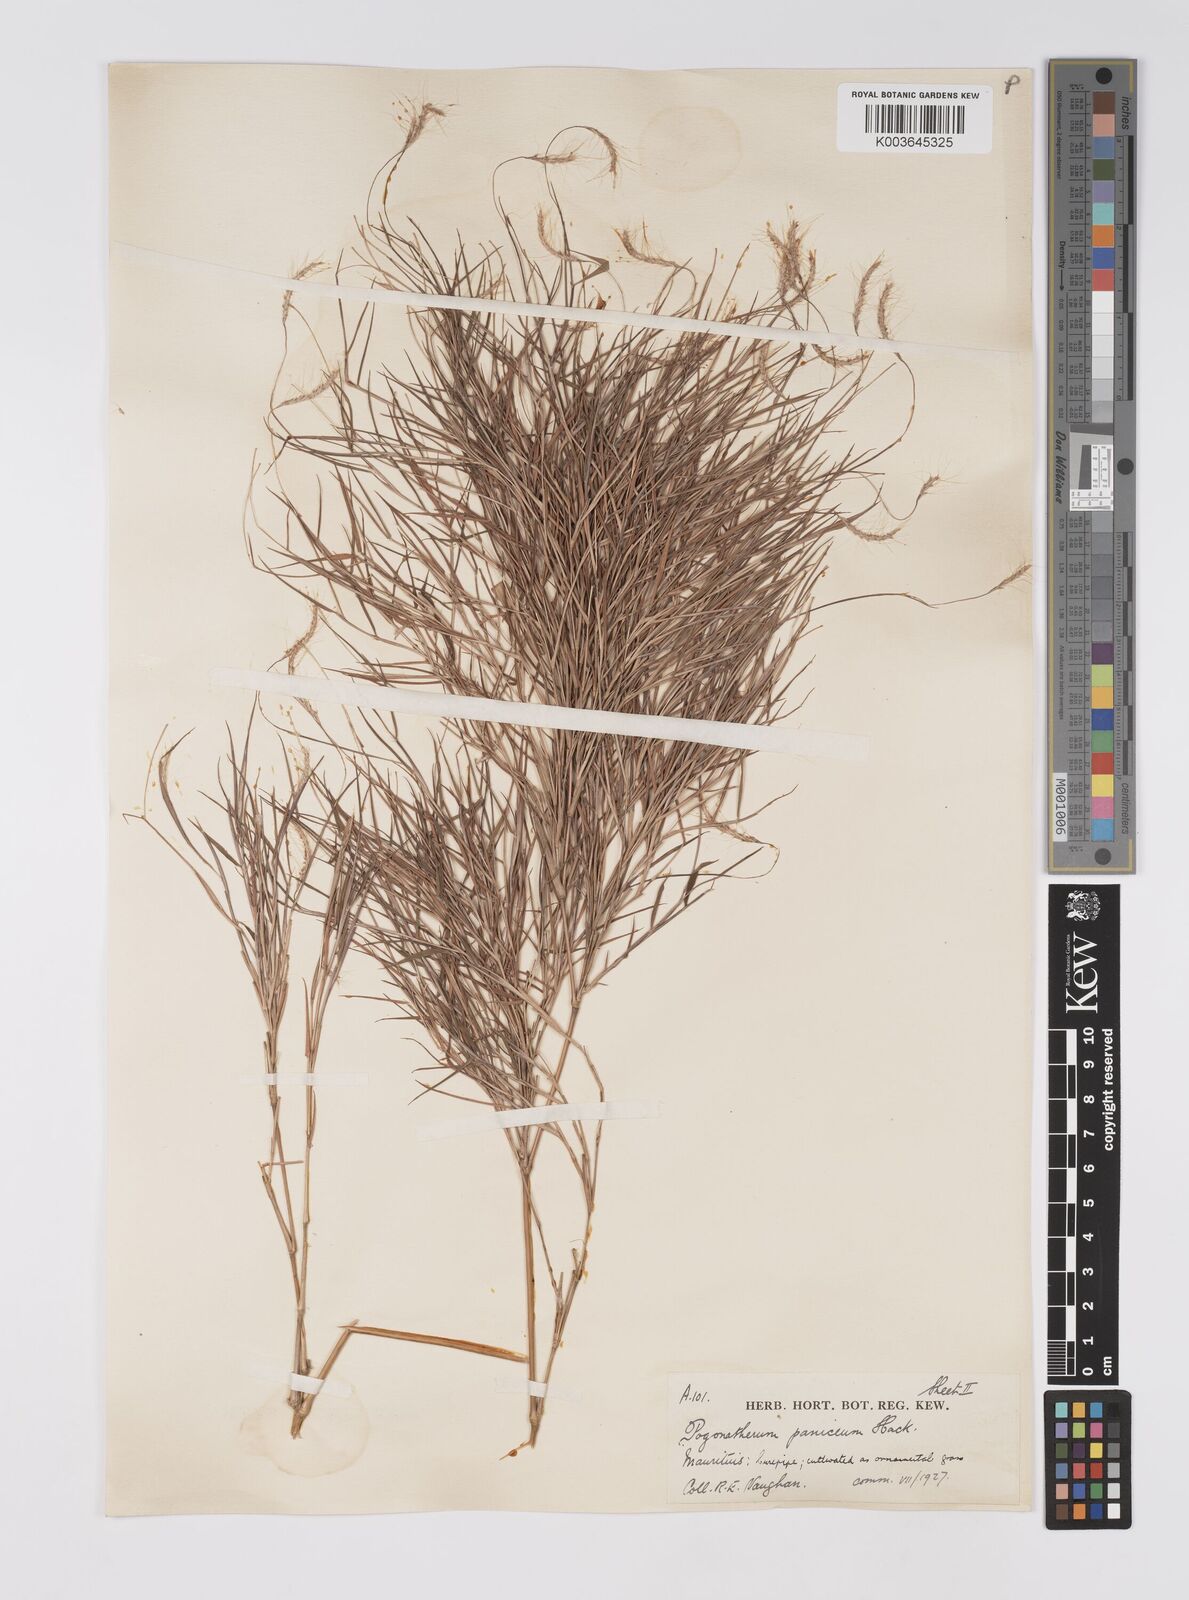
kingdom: Plantae
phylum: Tracheophyta
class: Liliopsida
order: Poales
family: Poaceae
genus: Pogonatherum
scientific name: Pogonatherum paniceum
